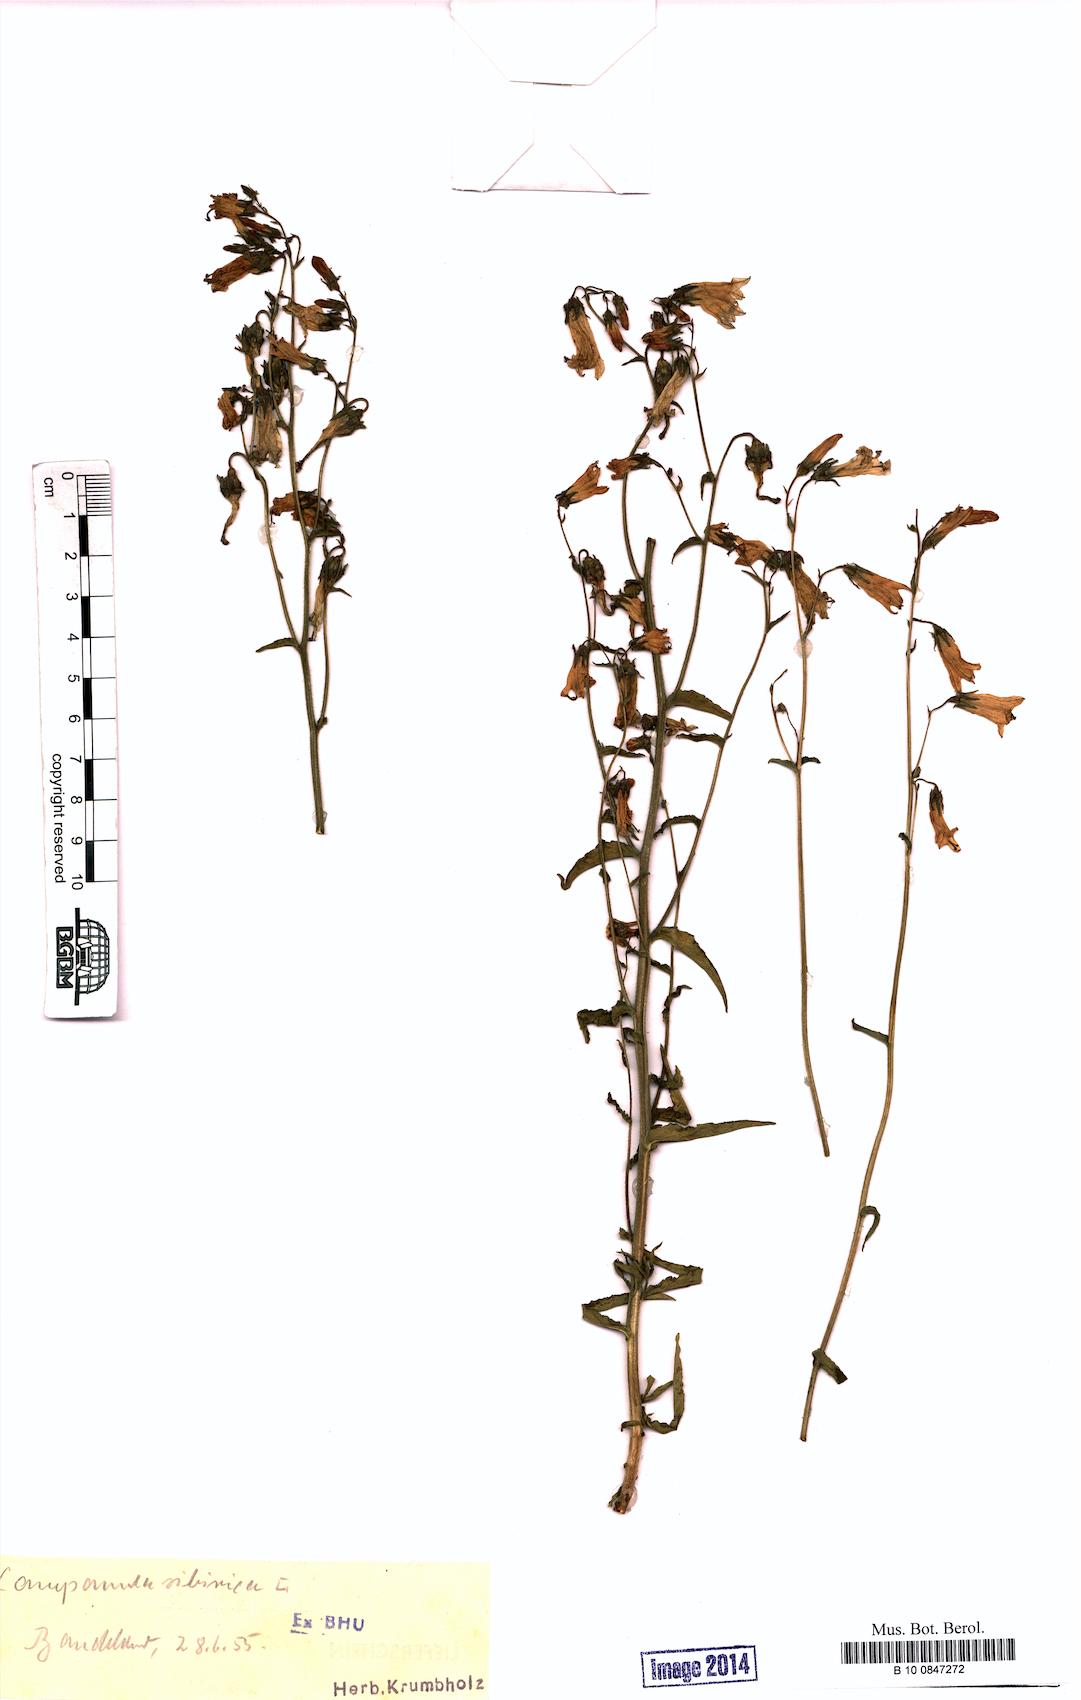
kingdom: Plantae
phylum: Tracheophyta
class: Magnoliopsida
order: Asterales
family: Campanulaceae
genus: Campanula
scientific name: Campanula sibirica
